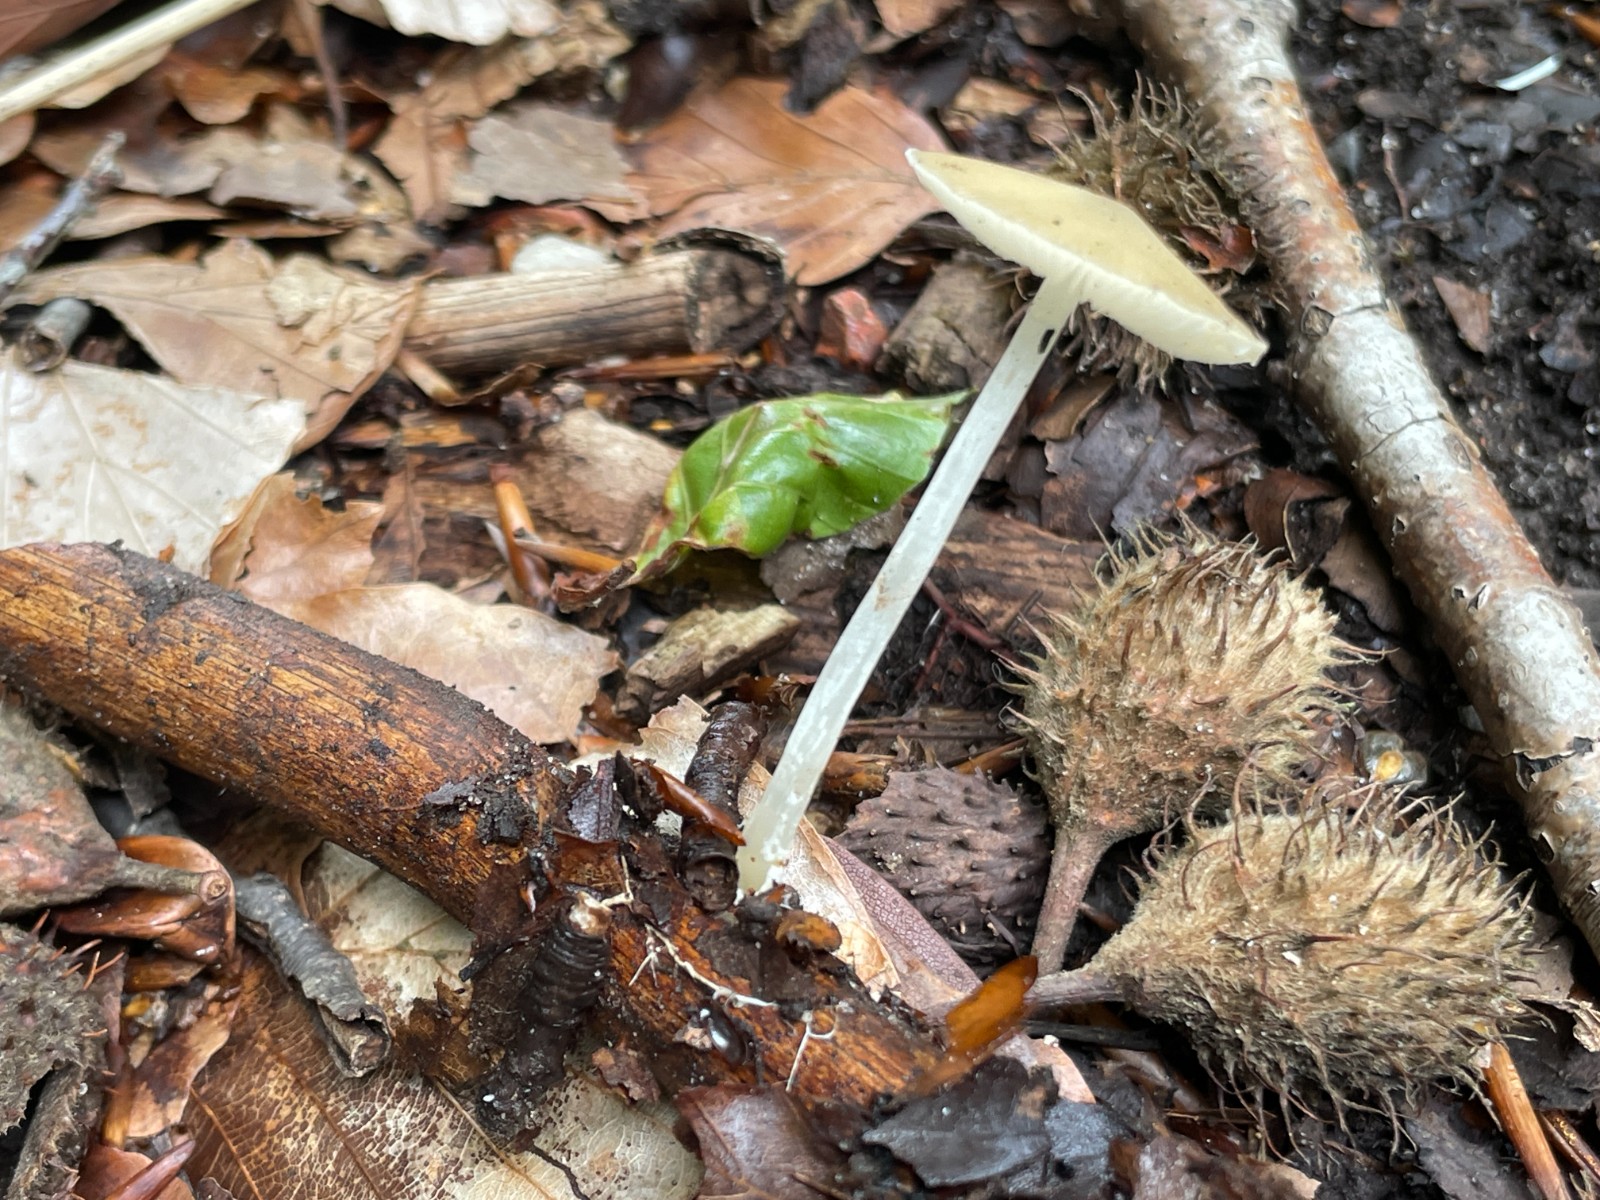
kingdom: Fungi
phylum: Basidiomycota
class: Agaricomycetes
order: Agaricales
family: Porotheleaceae
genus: Hydropodia
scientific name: Hydropodia subalpina
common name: vår-fnugfod
